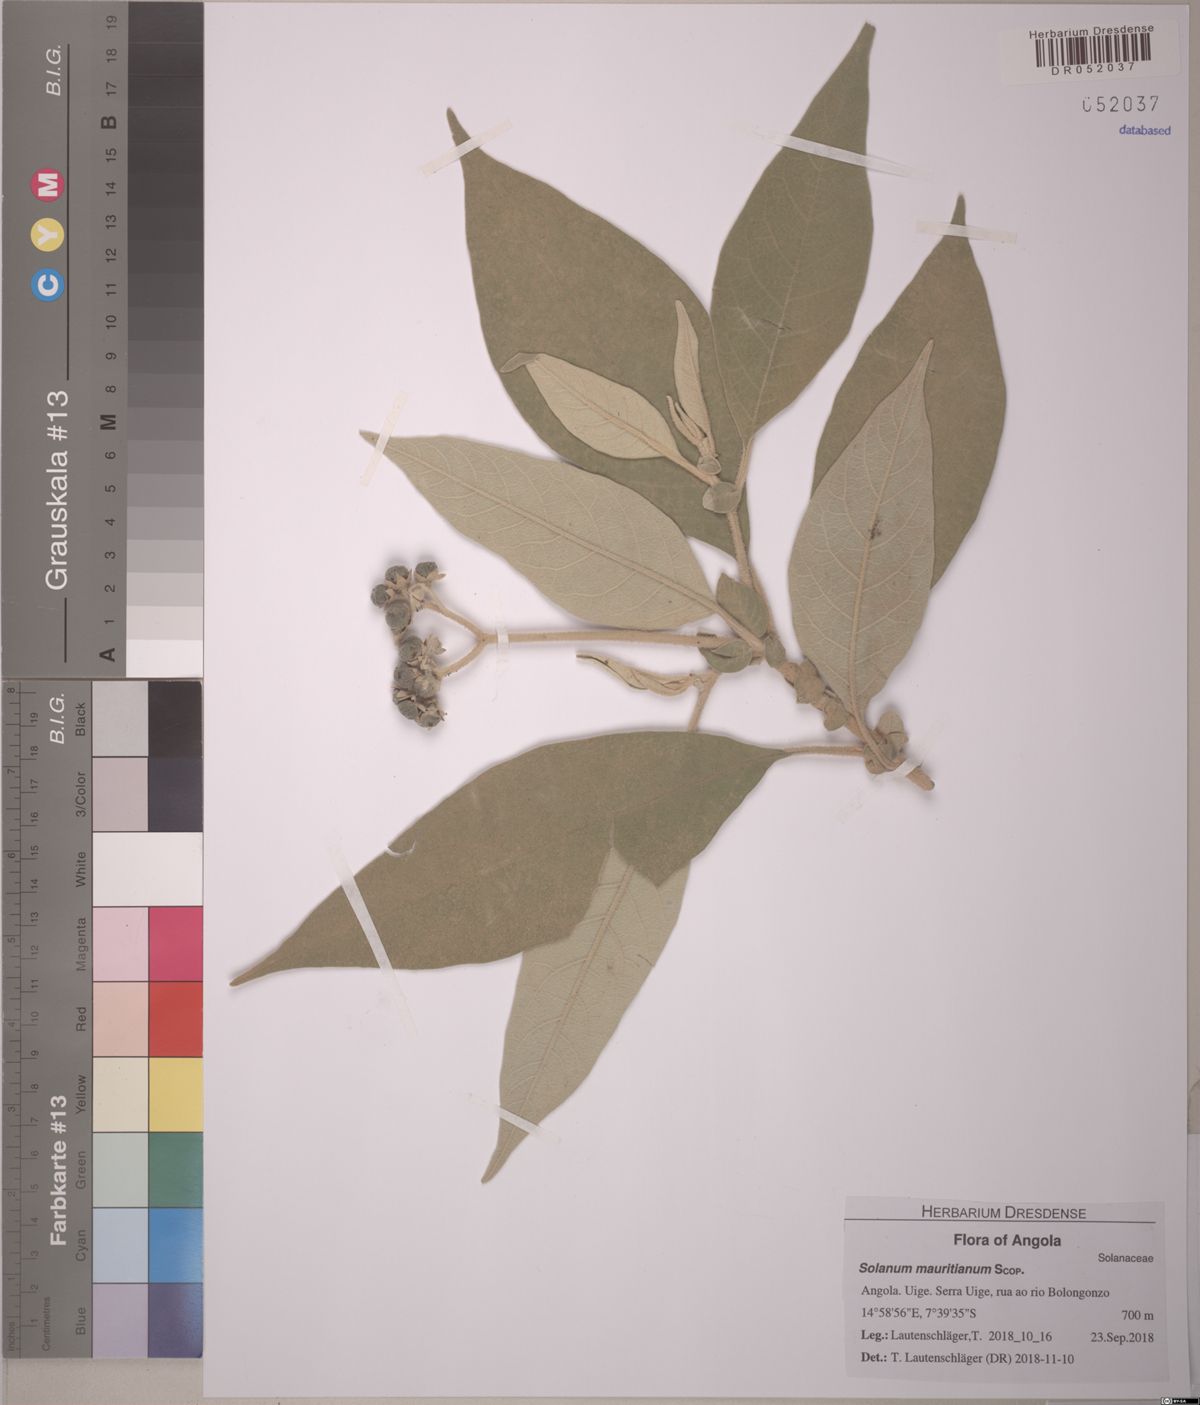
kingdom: Plantae
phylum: Tracheophyta
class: Magnoliopsida
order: Solanales
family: Solanaceae
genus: Solanum
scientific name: Solanum mauritianum
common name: Earleaf nightshade
